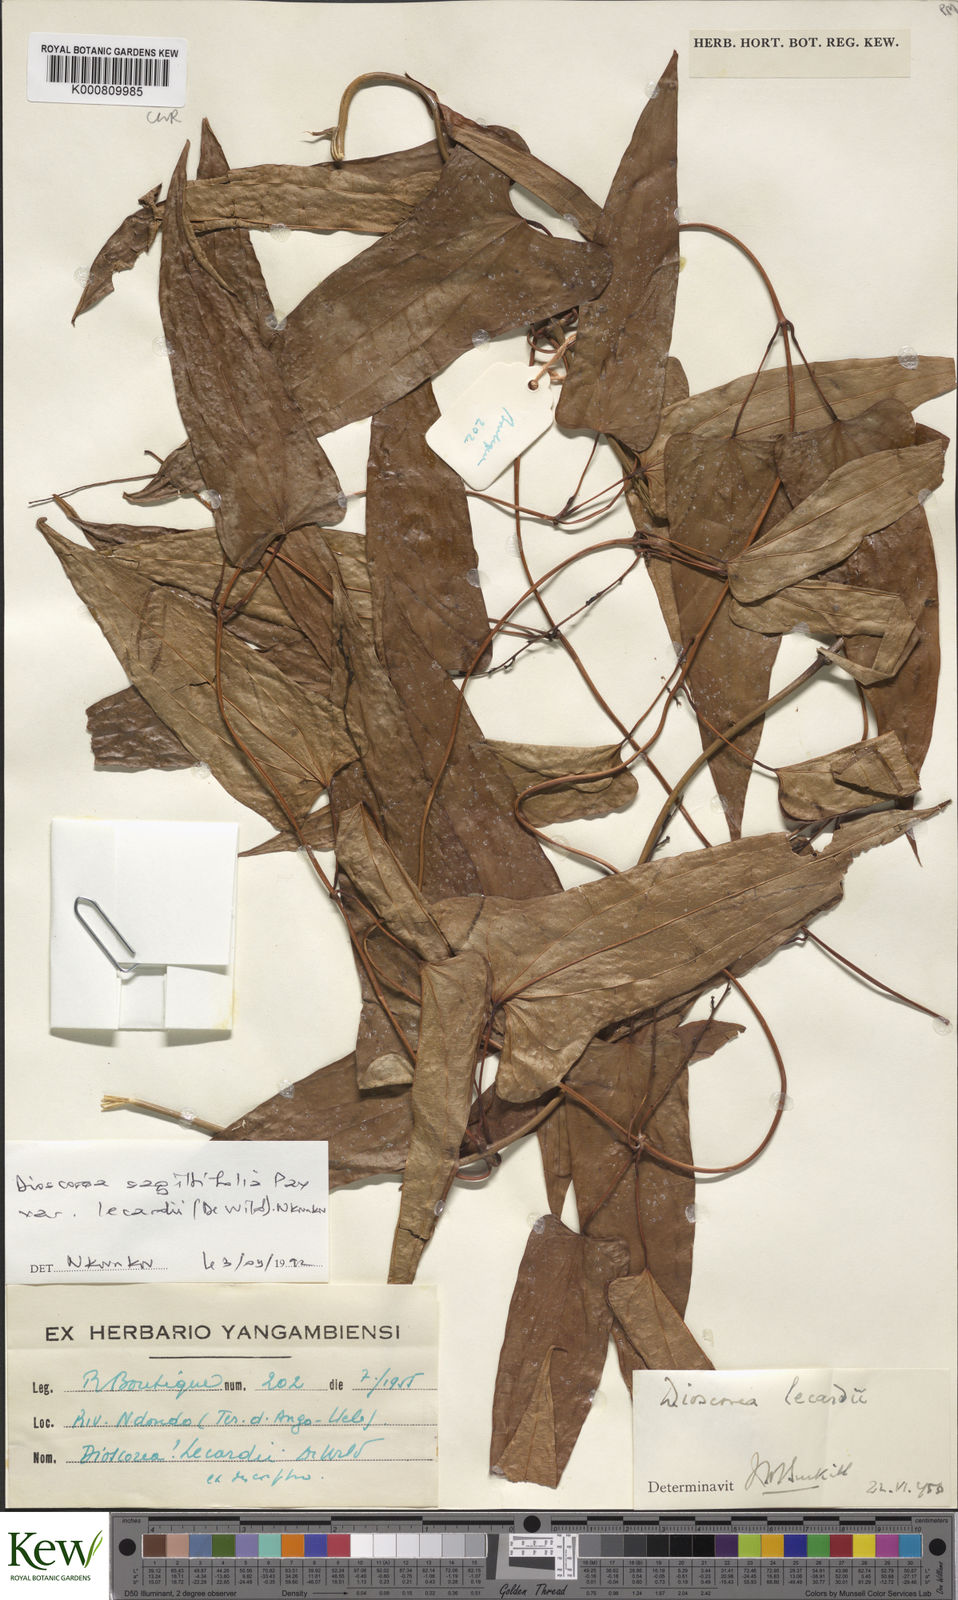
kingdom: Plantae
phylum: Tracheophyta
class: Liliopsida
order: Dioscoreales
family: Dioscoreaceae
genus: Dioscorea
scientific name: Dioscorea sagittifolia
